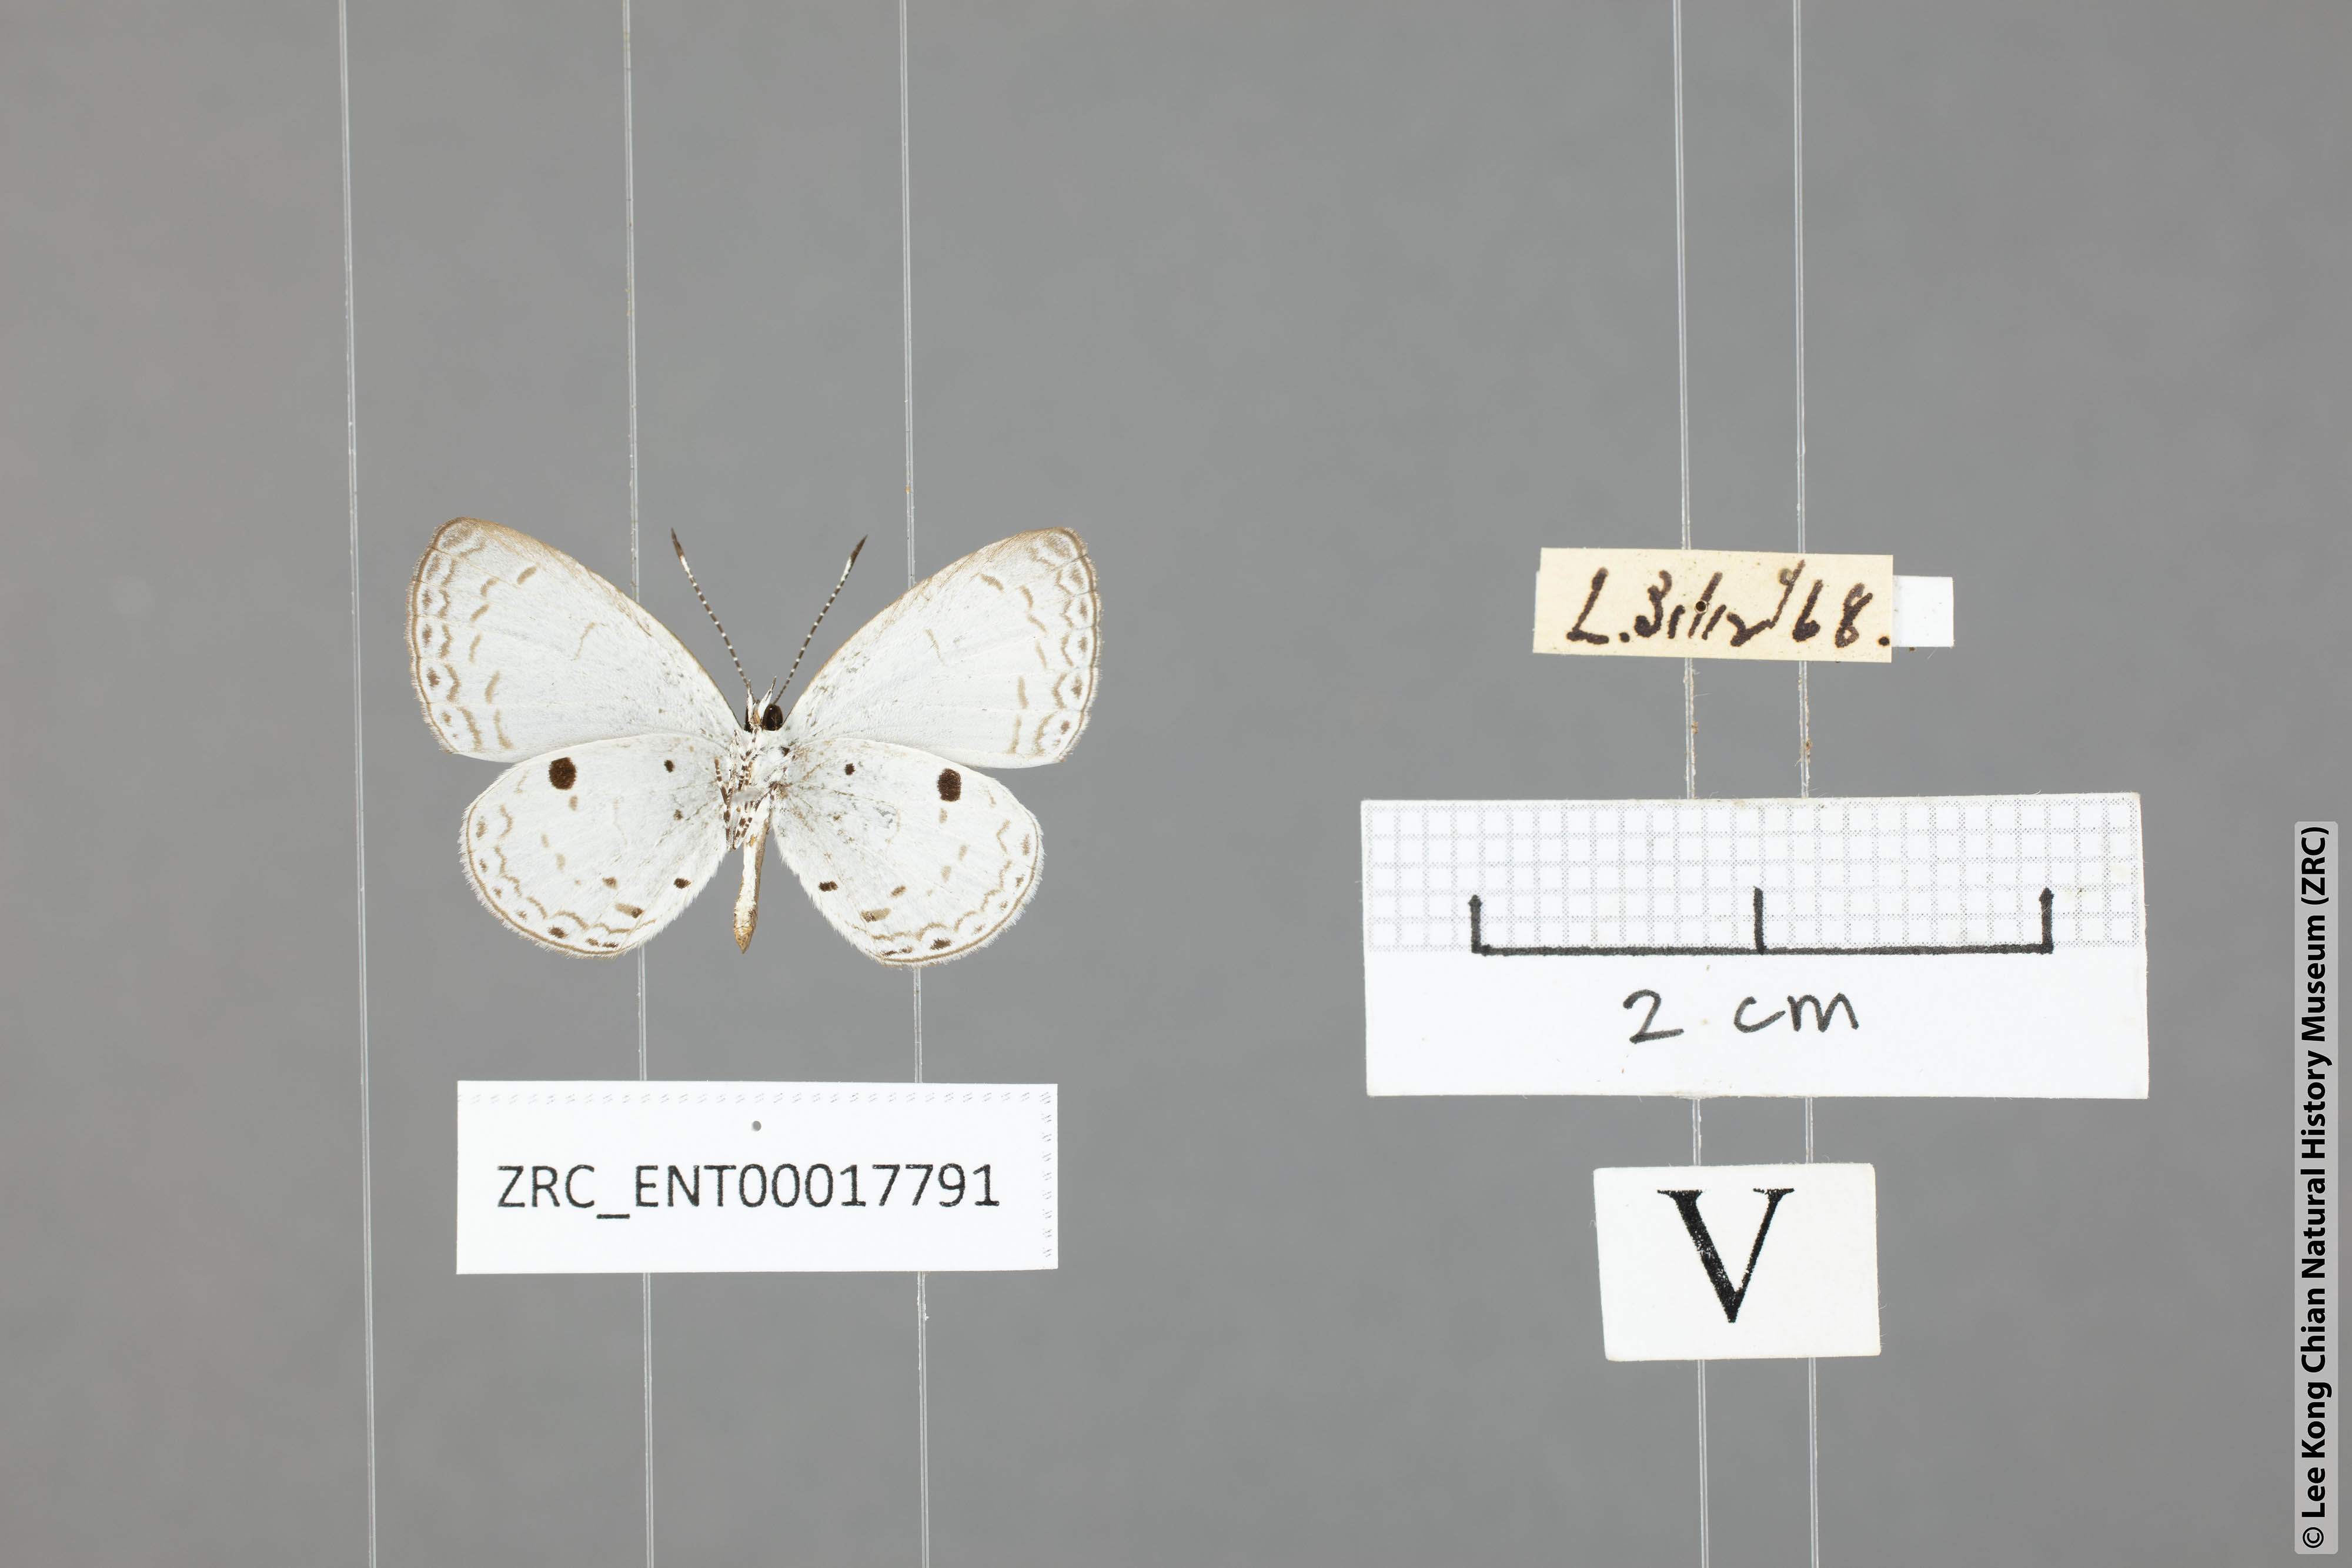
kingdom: Animalia
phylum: Arthropoda
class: Insecta
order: Lepidoptera
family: Lycaenidae
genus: Callenya
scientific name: Callenya lenya
